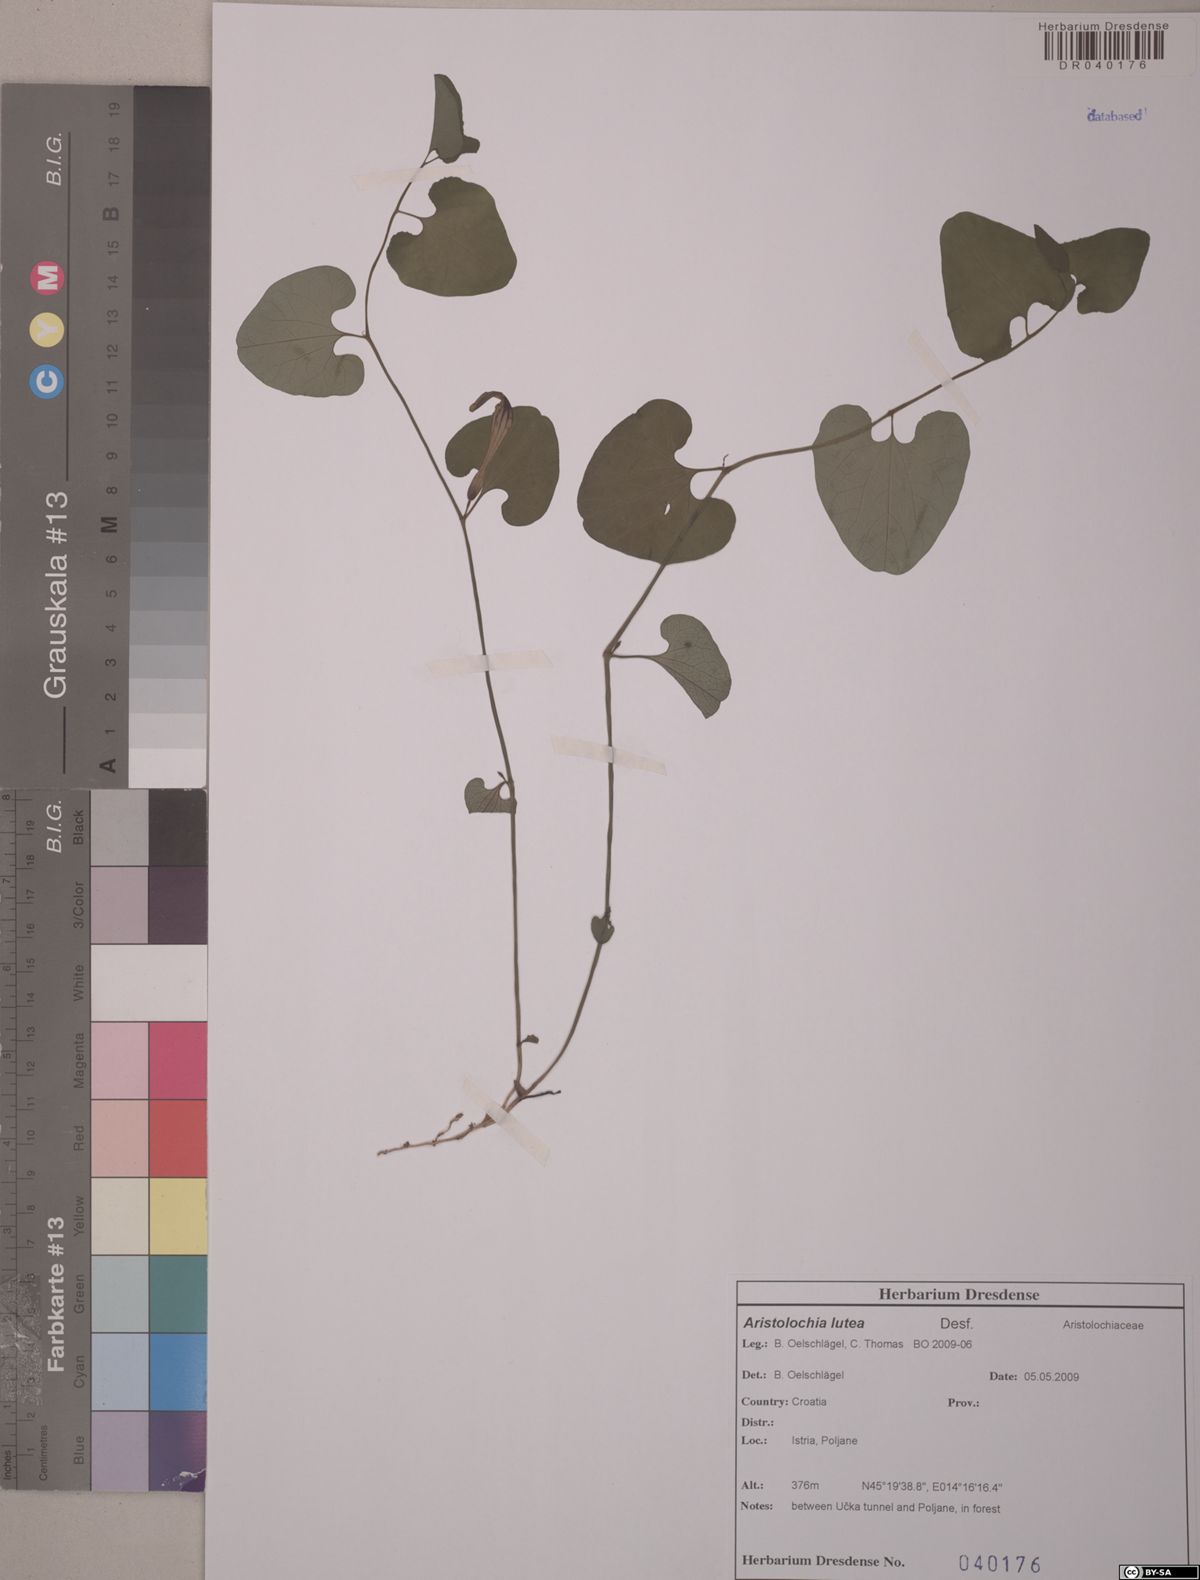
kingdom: Plantae
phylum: Tracheophyta
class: Magnoliopsida
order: Piperales
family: Aristolochiaceae
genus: Aristolochia
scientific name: Aristolochia lutea
